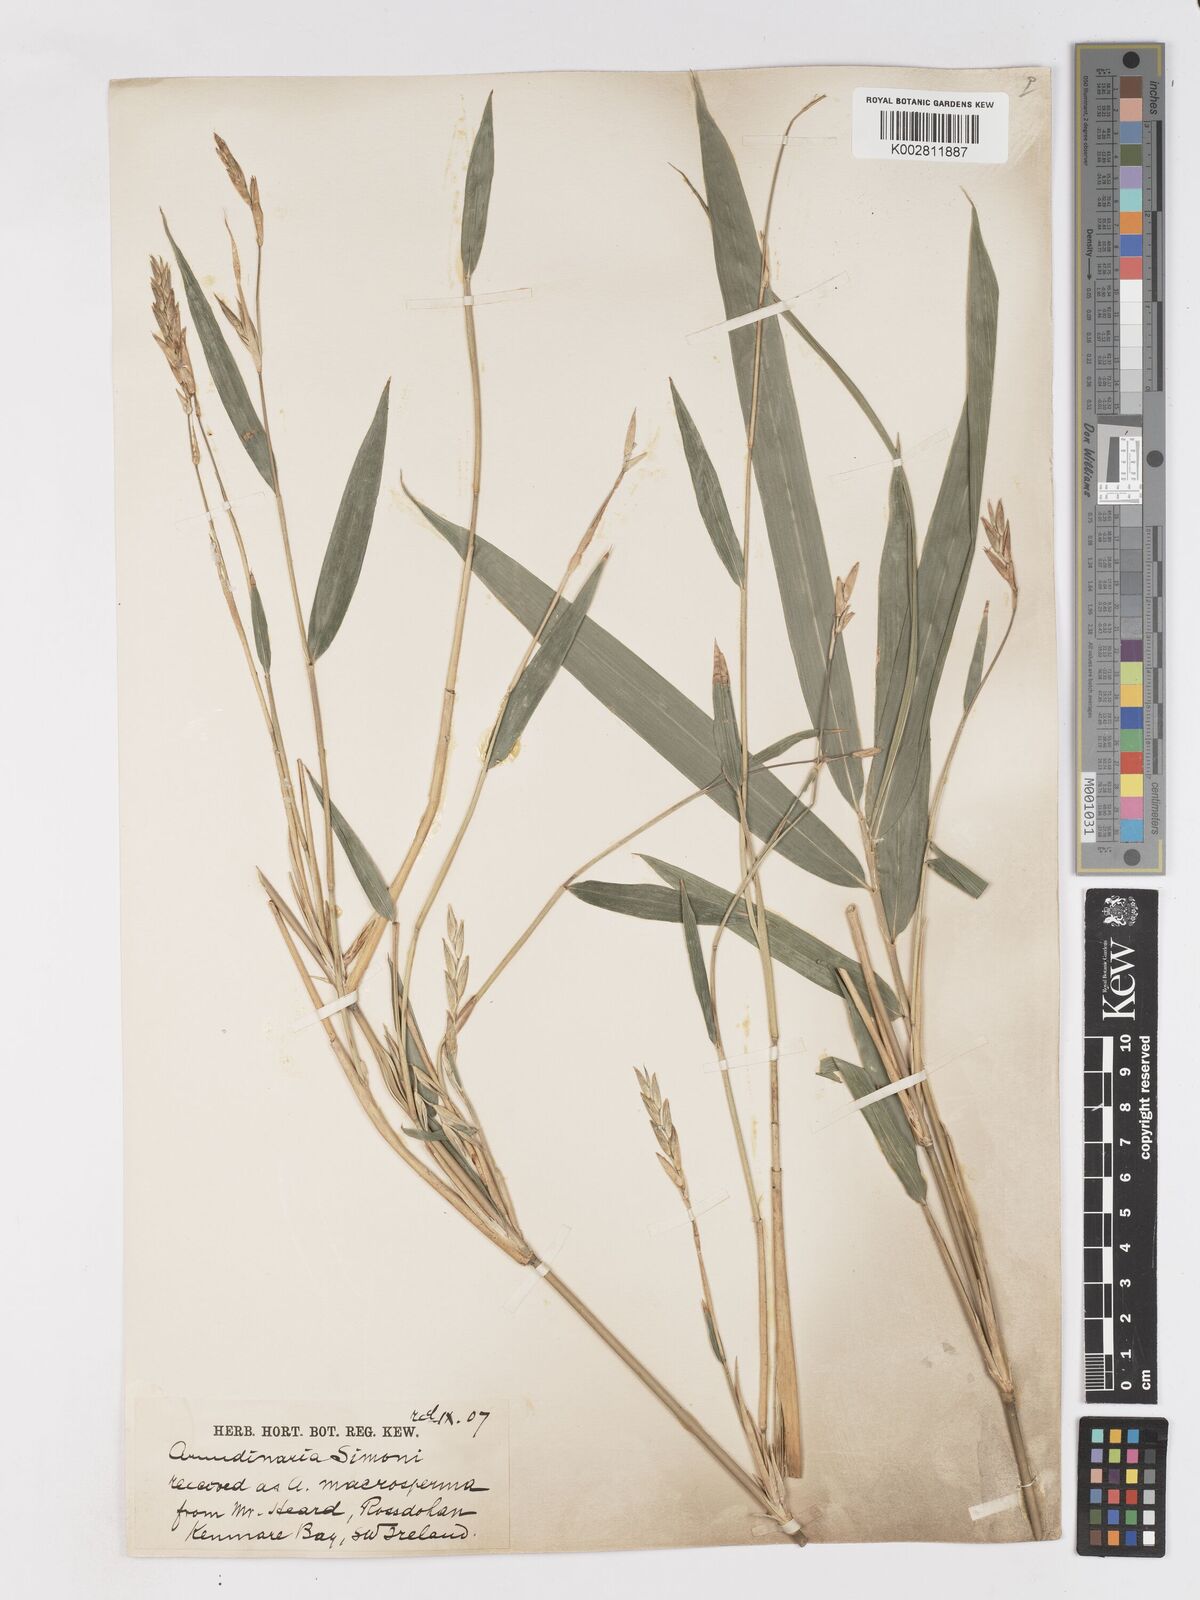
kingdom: Plantae
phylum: Tracheophyta
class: Liliopsida
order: Poales
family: Poaceae
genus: Pleioblastus
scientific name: Pleioblastus simonii
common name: Simon bamboo
